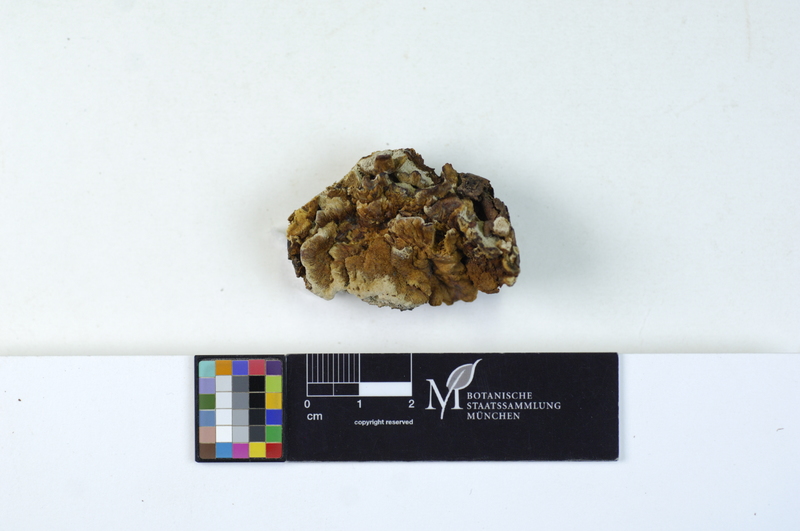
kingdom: Fungi
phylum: Basidiomycota
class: Agaricomycetes
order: Hymenochaetales
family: Hymenochaetaceae
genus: Mensularia
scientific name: Mensularia nodulosa
